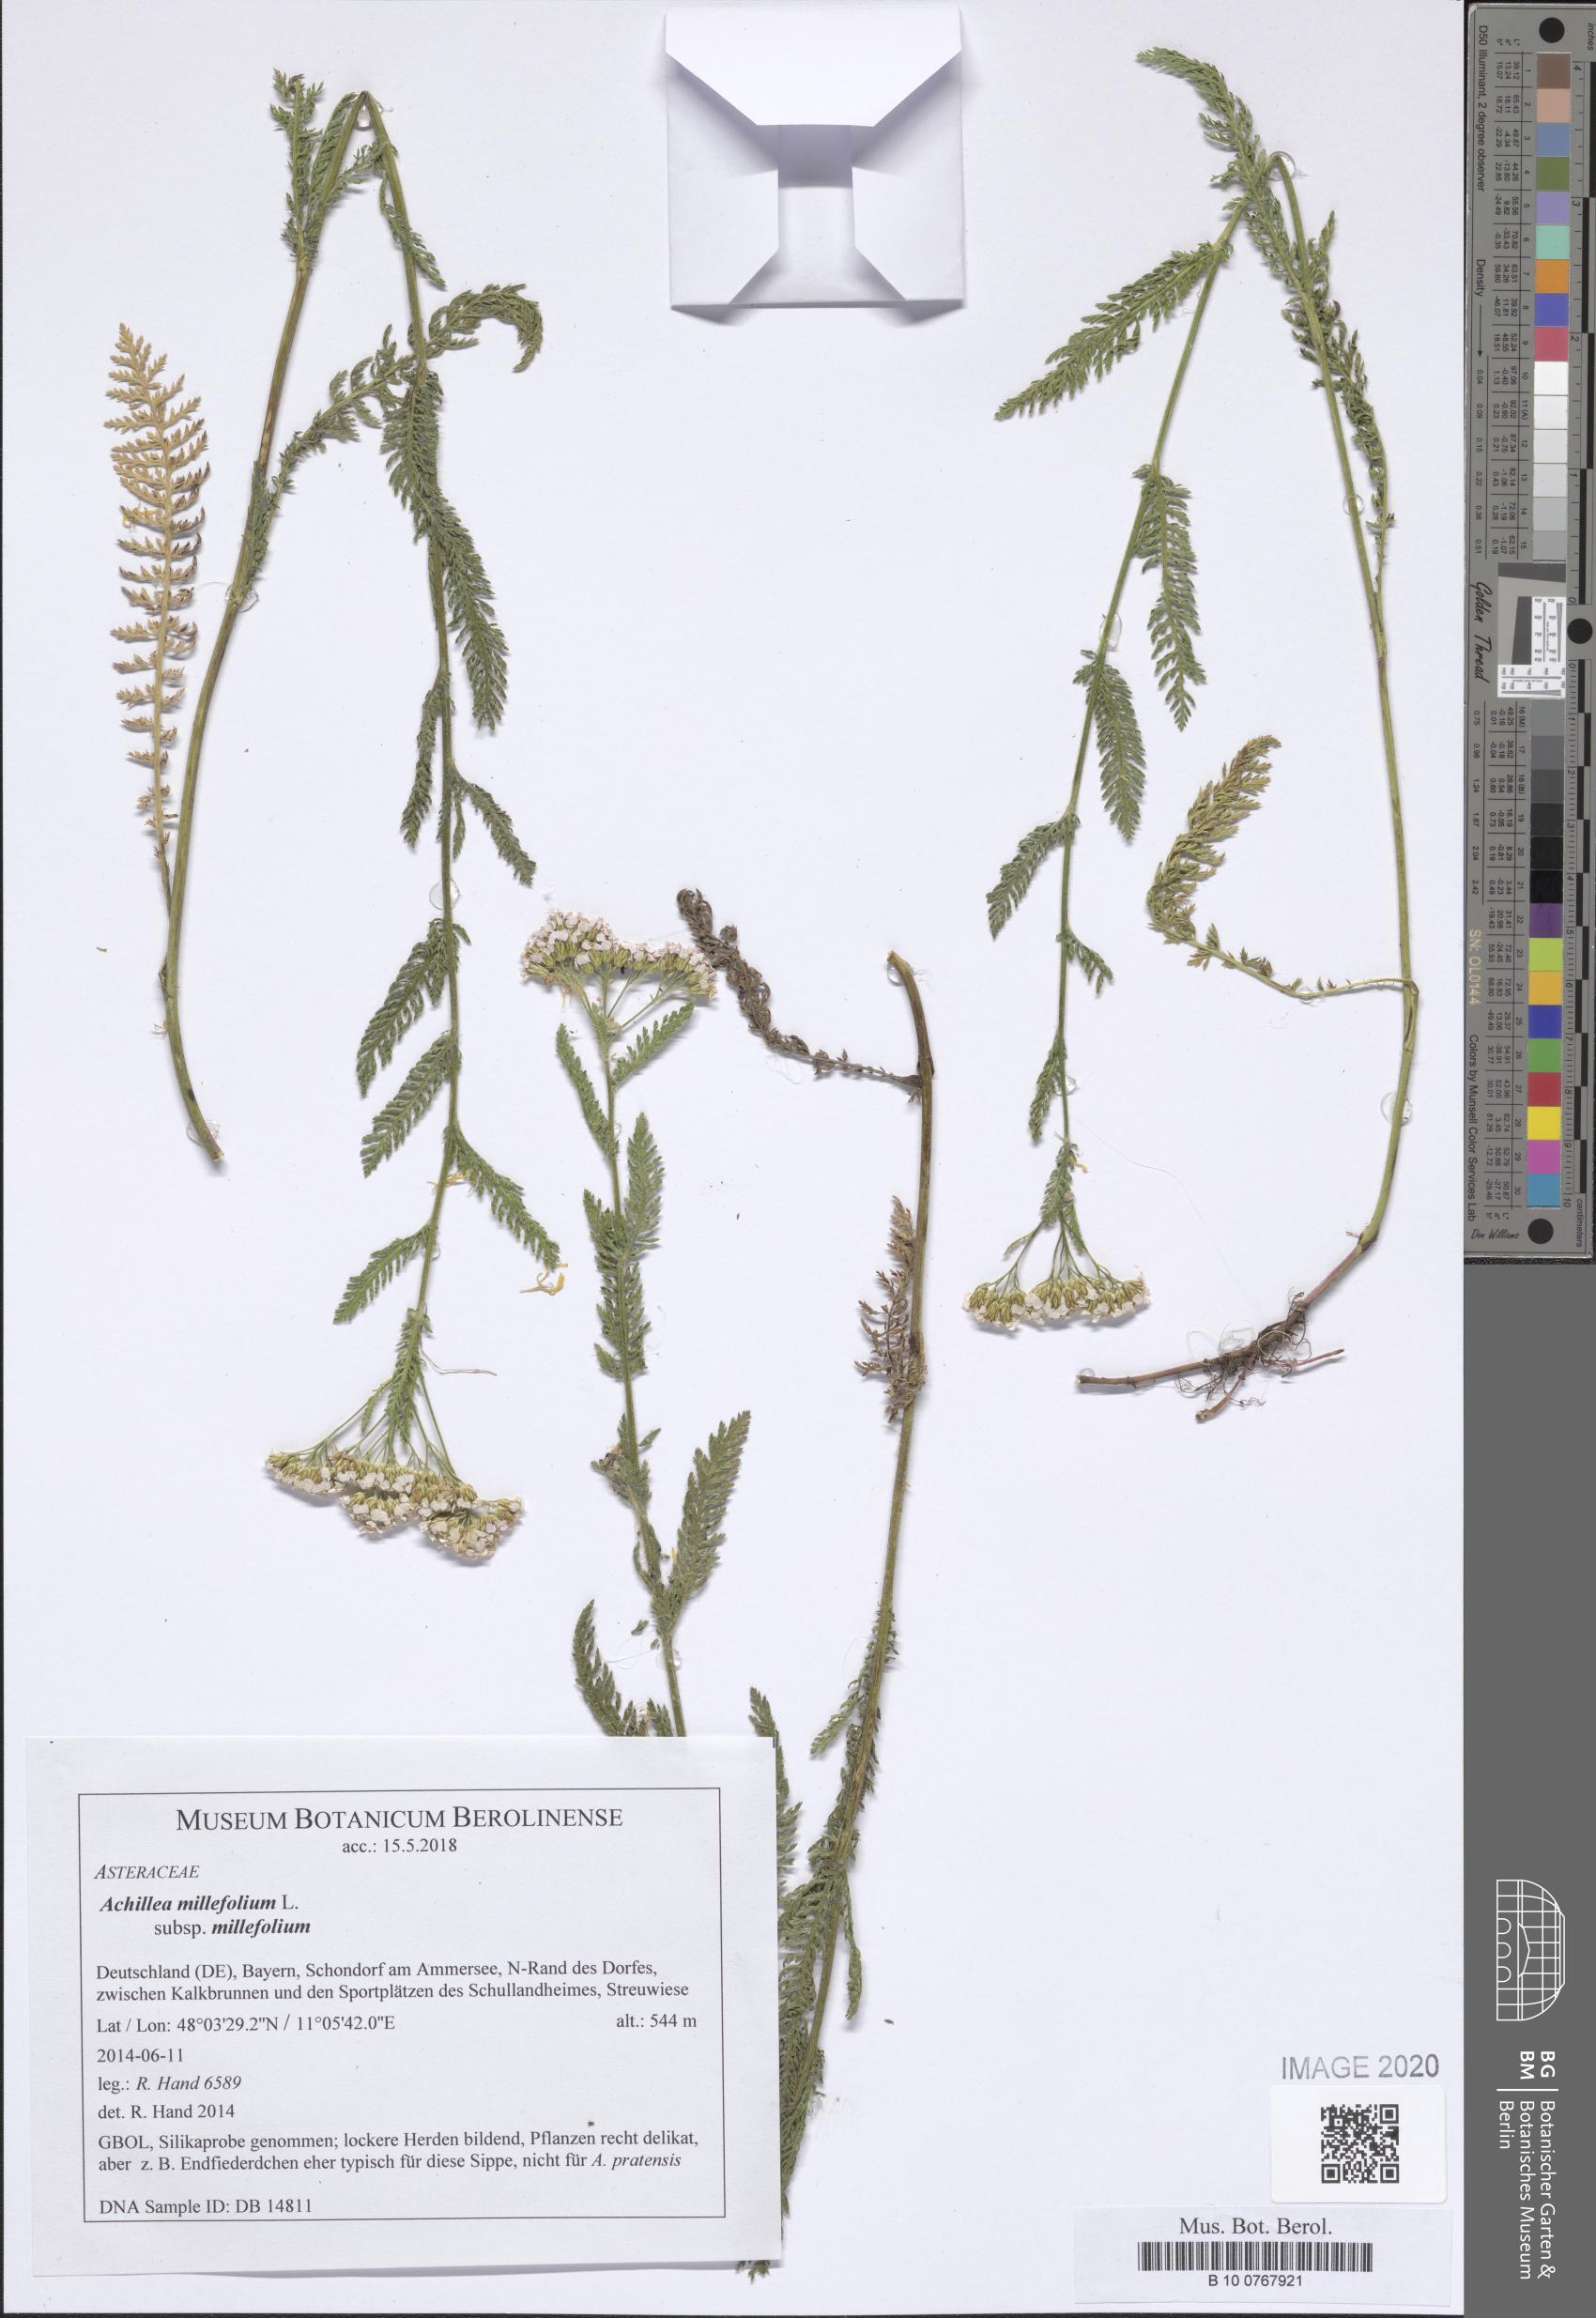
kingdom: Plantae
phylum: Tracheophyta
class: Magnoliopsida
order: Asterales
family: Asteraceae
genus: Achillea
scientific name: Achillea millefolium
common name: Yarrow
